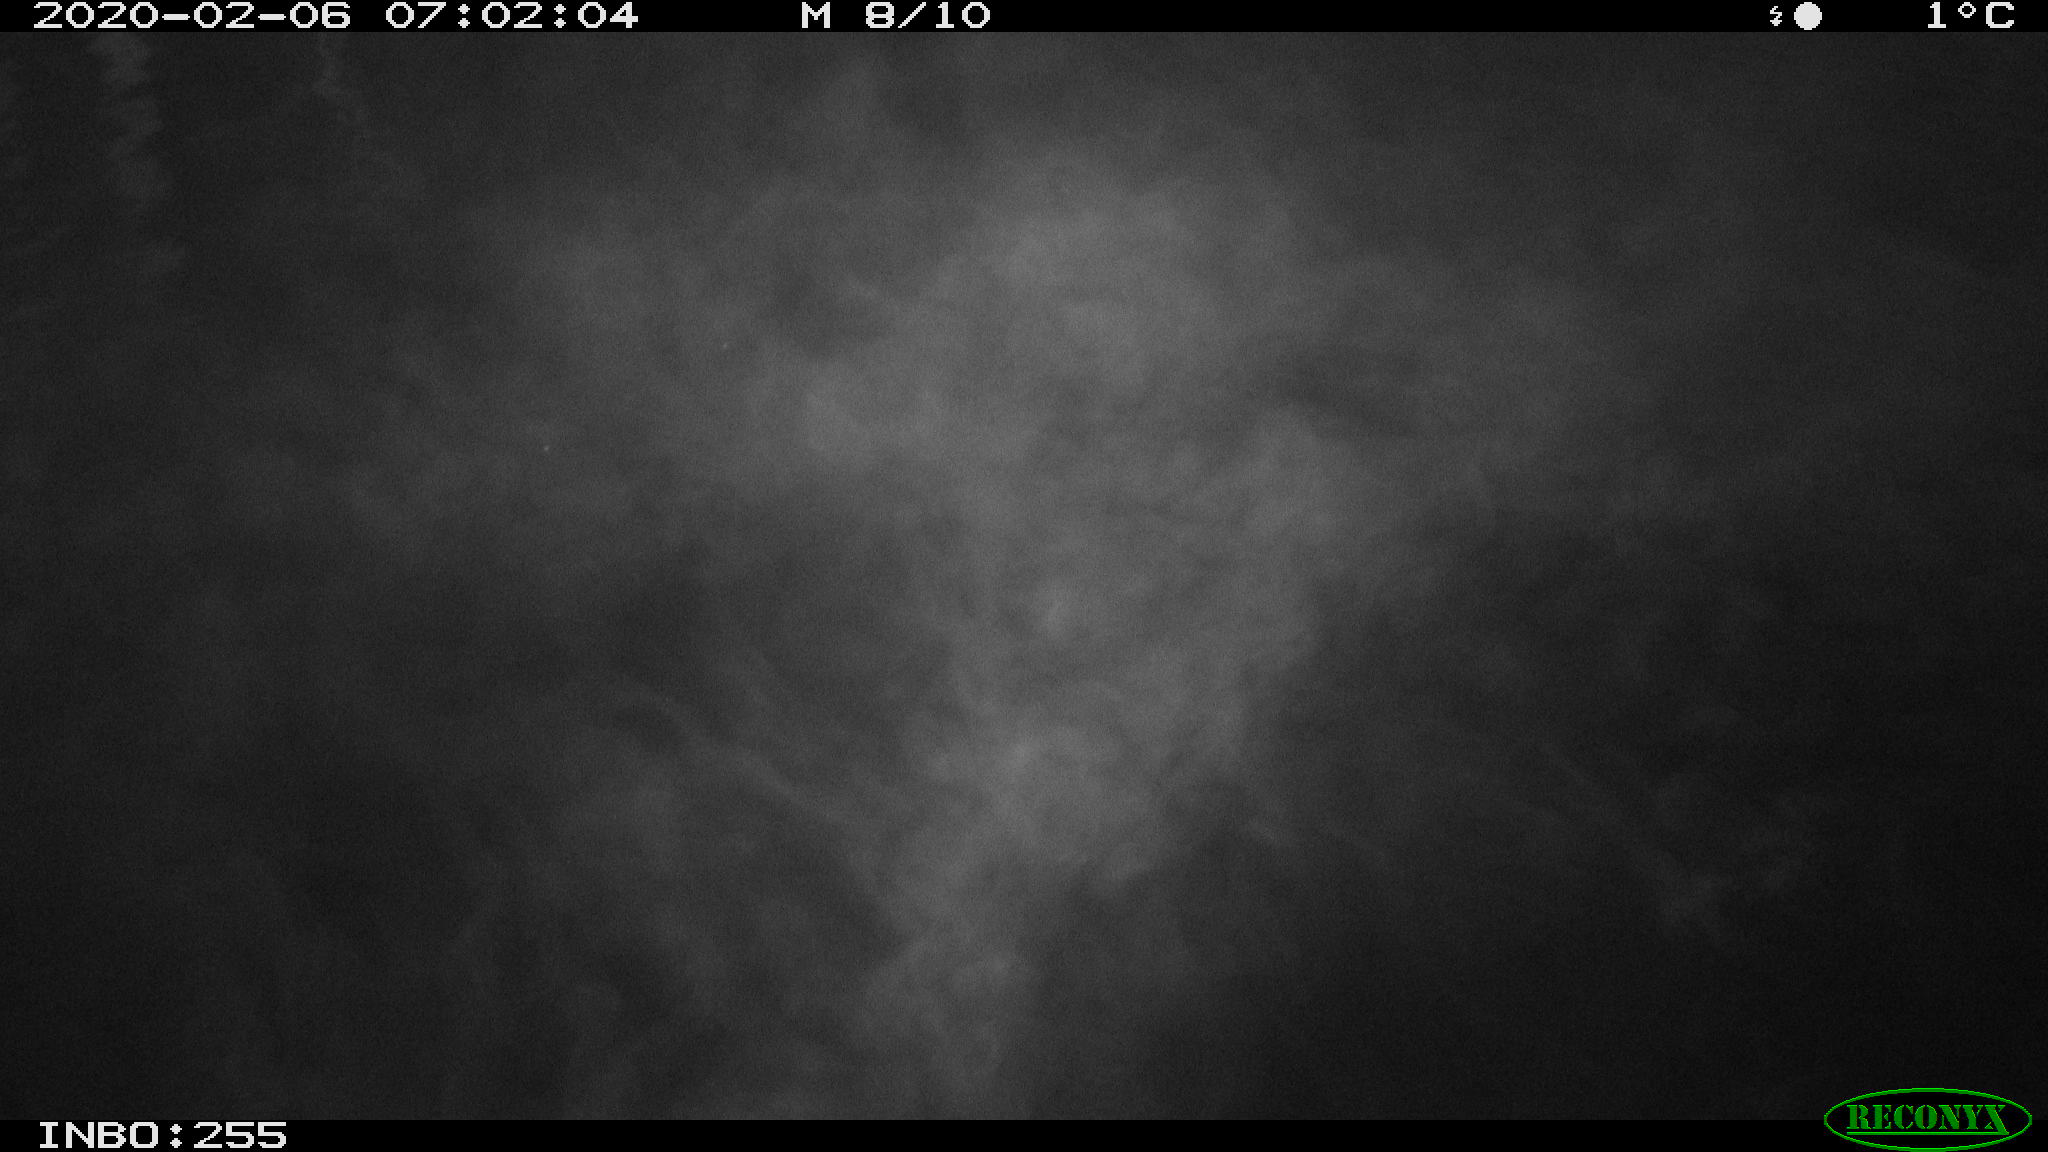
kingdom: Animalia
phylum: Chordata
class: Aves
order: Anseriformes
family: Anatidae
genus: Anas
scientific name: Anas platyrhynchos
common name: Mallard
